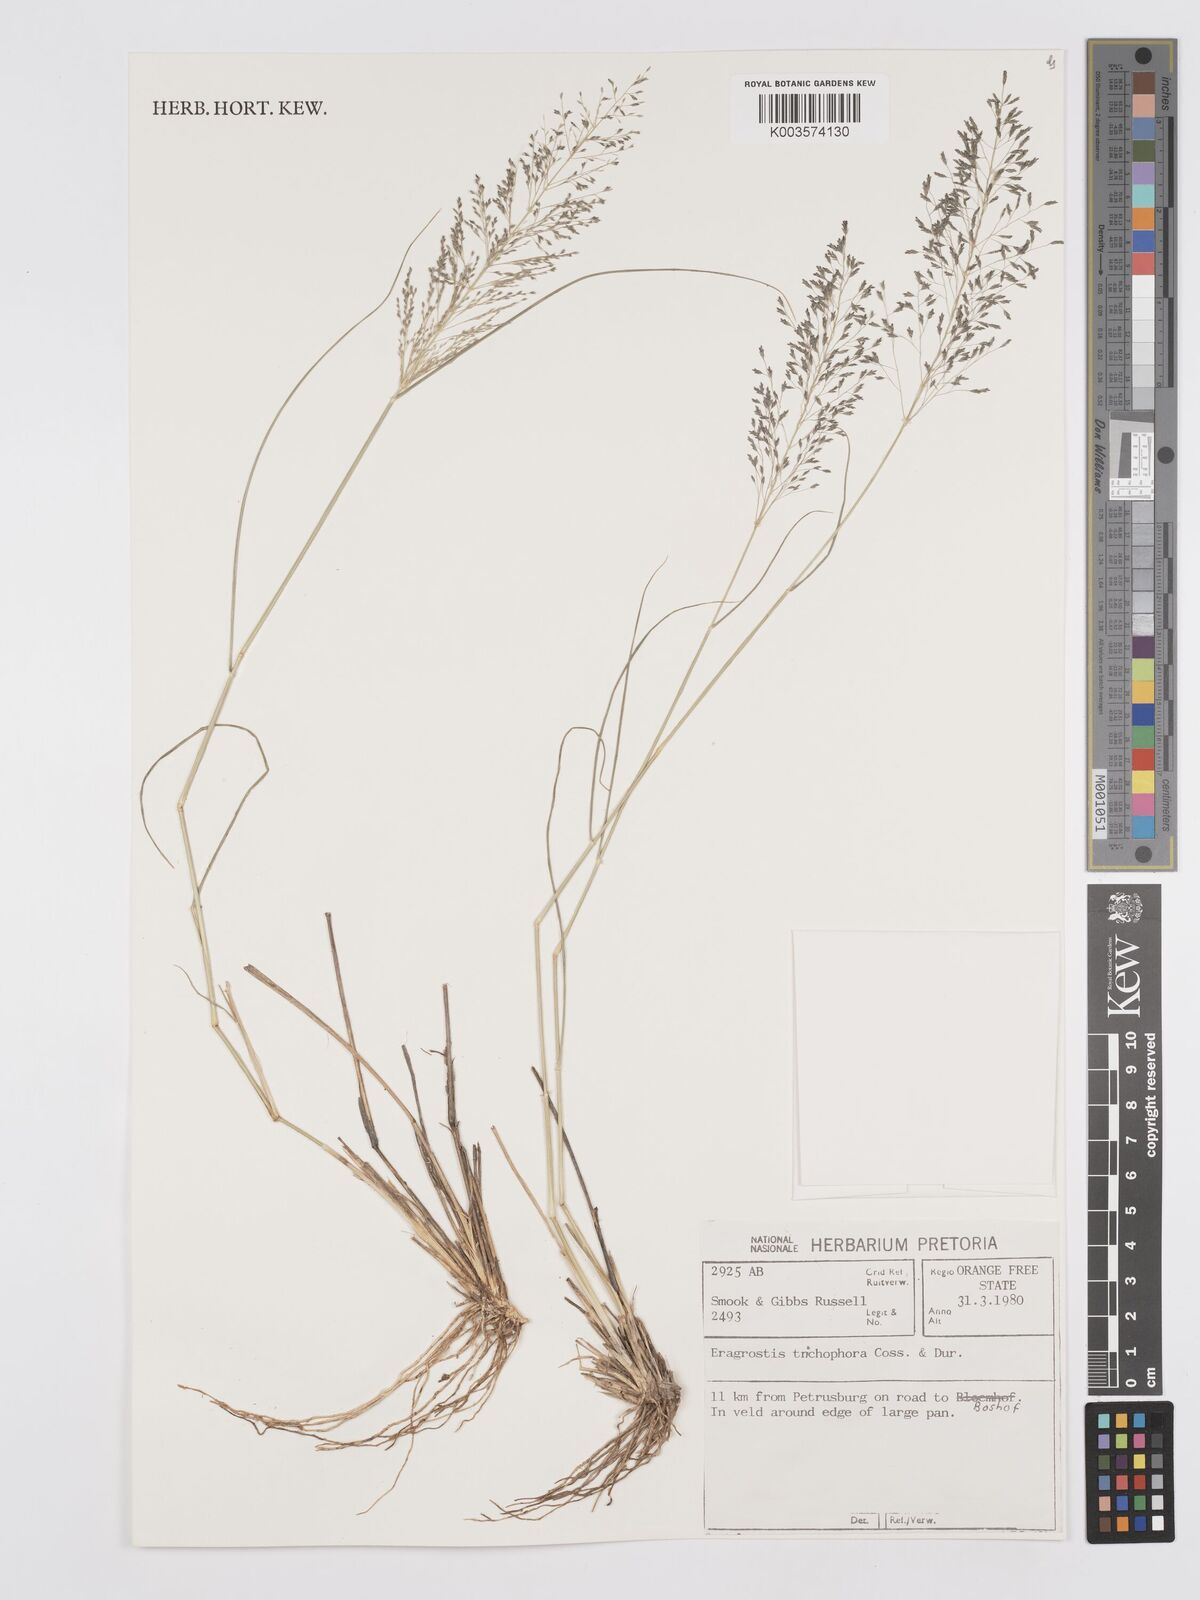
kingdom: Plantae
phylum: Tracheophyta
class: Liliopsida
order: Poales
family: Poaceae
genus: Eragrostis
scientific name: Eragrostis cylindriflora
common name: Cylinderflower lovegrass
